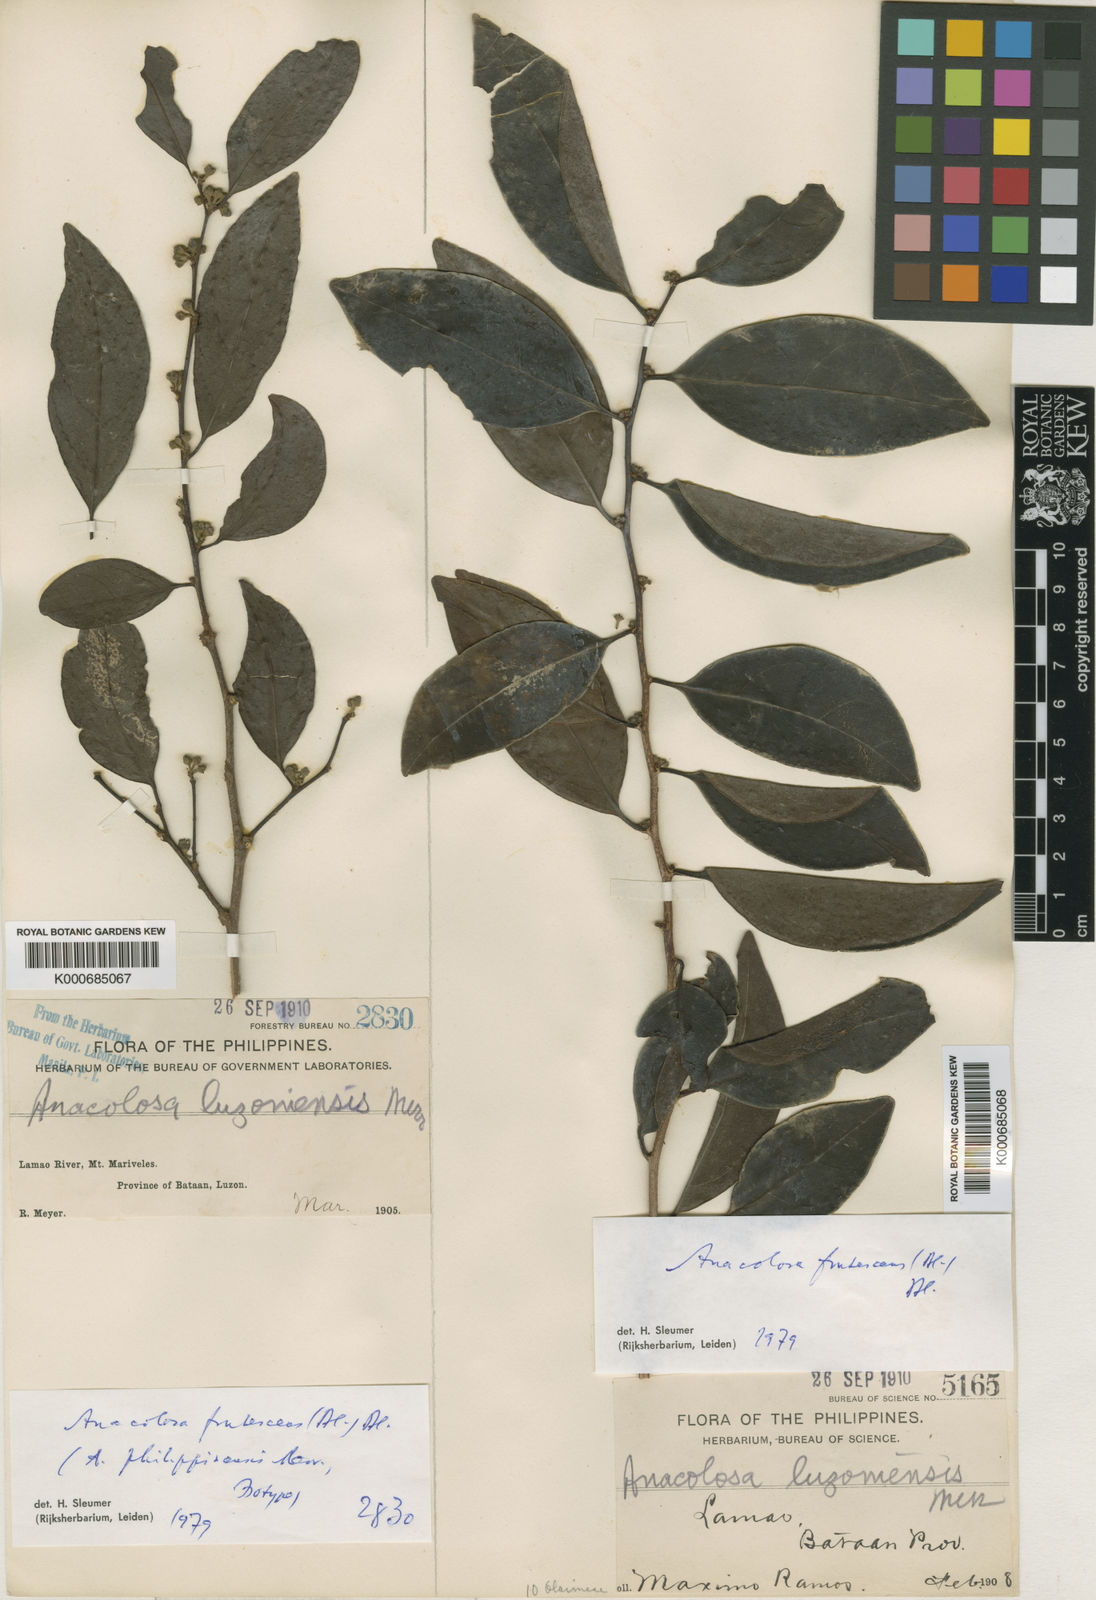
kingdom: Plantae
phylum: Tracheophyta
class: Magnoliopsida
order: Santalales
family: Aptandraceae
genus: Anacolosa
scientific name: Anacolosa frutescens
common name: Galo nut
